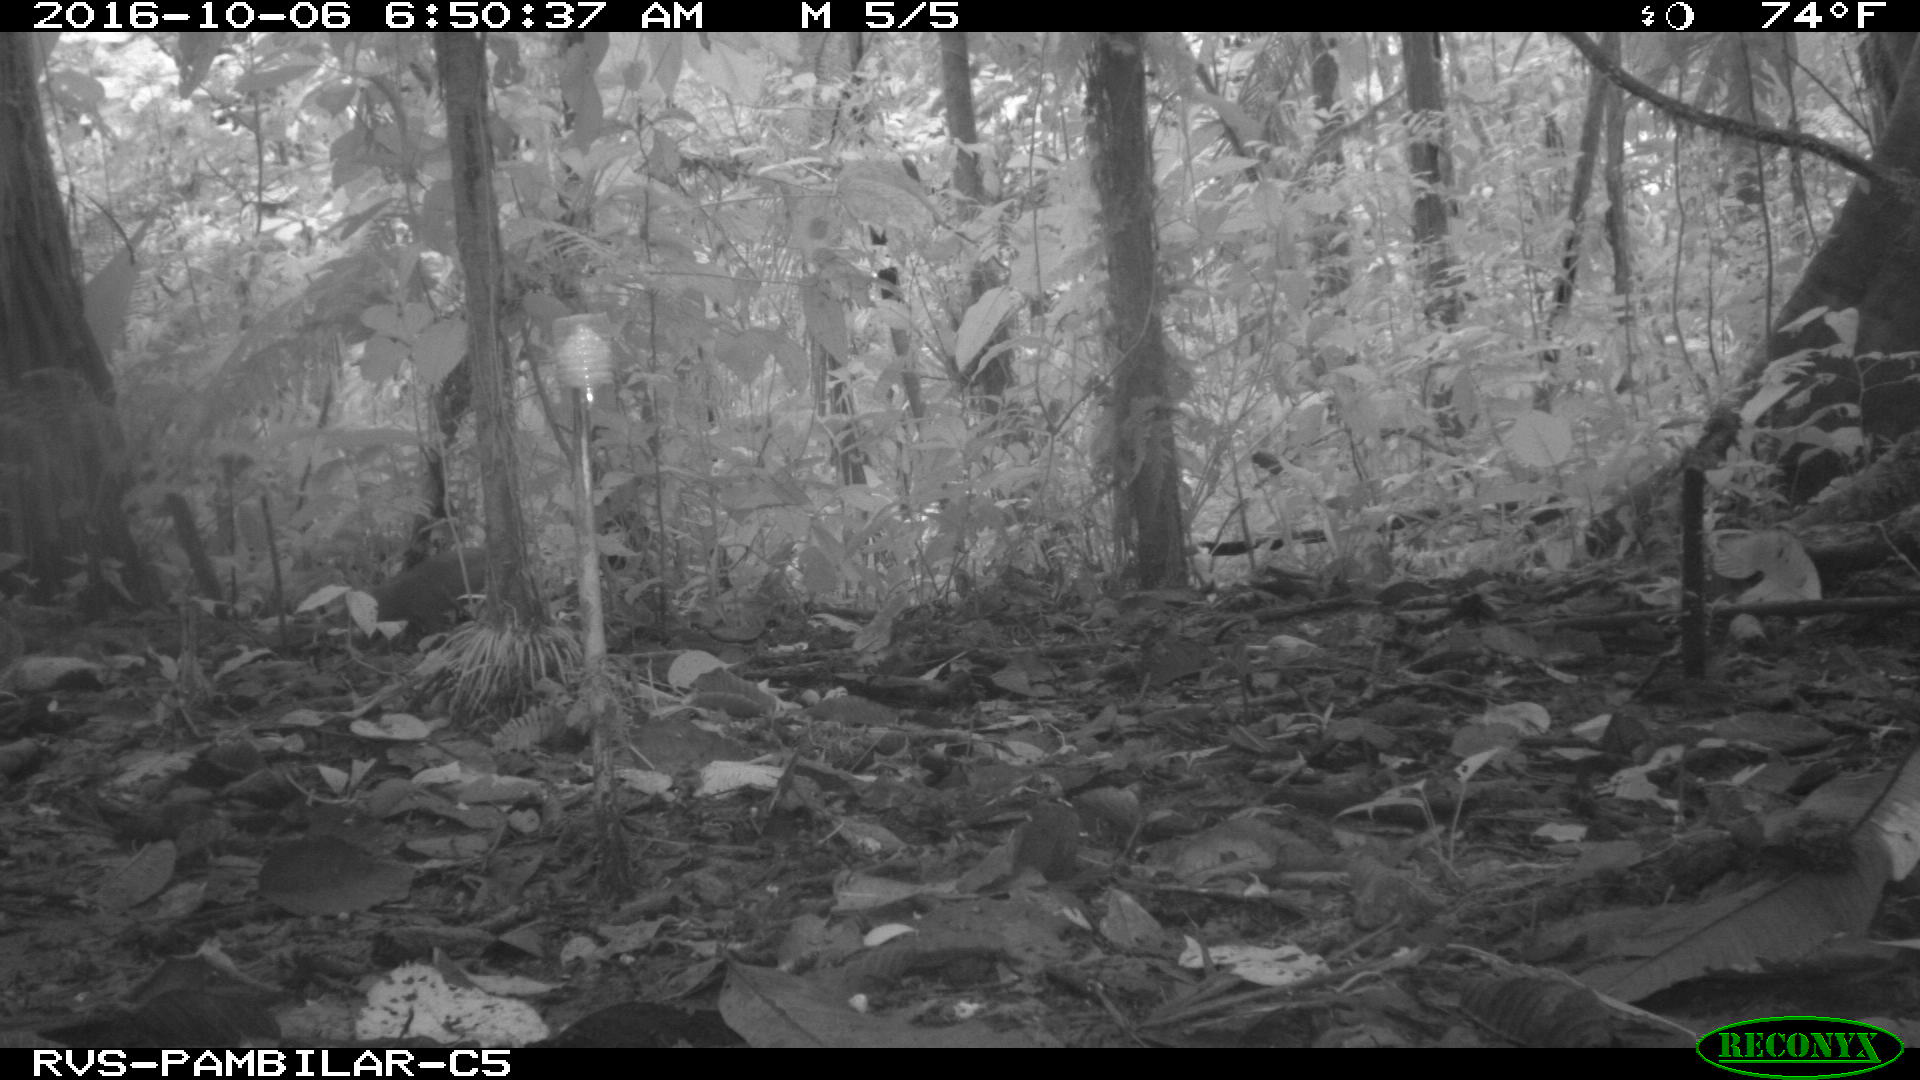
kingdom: Animalia
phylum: Chordata
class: Mammalia
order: Rodentia
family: Dasyproctidae
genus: Dasyprocta
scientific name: Dasyprocta punctata
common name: Central american agouti
